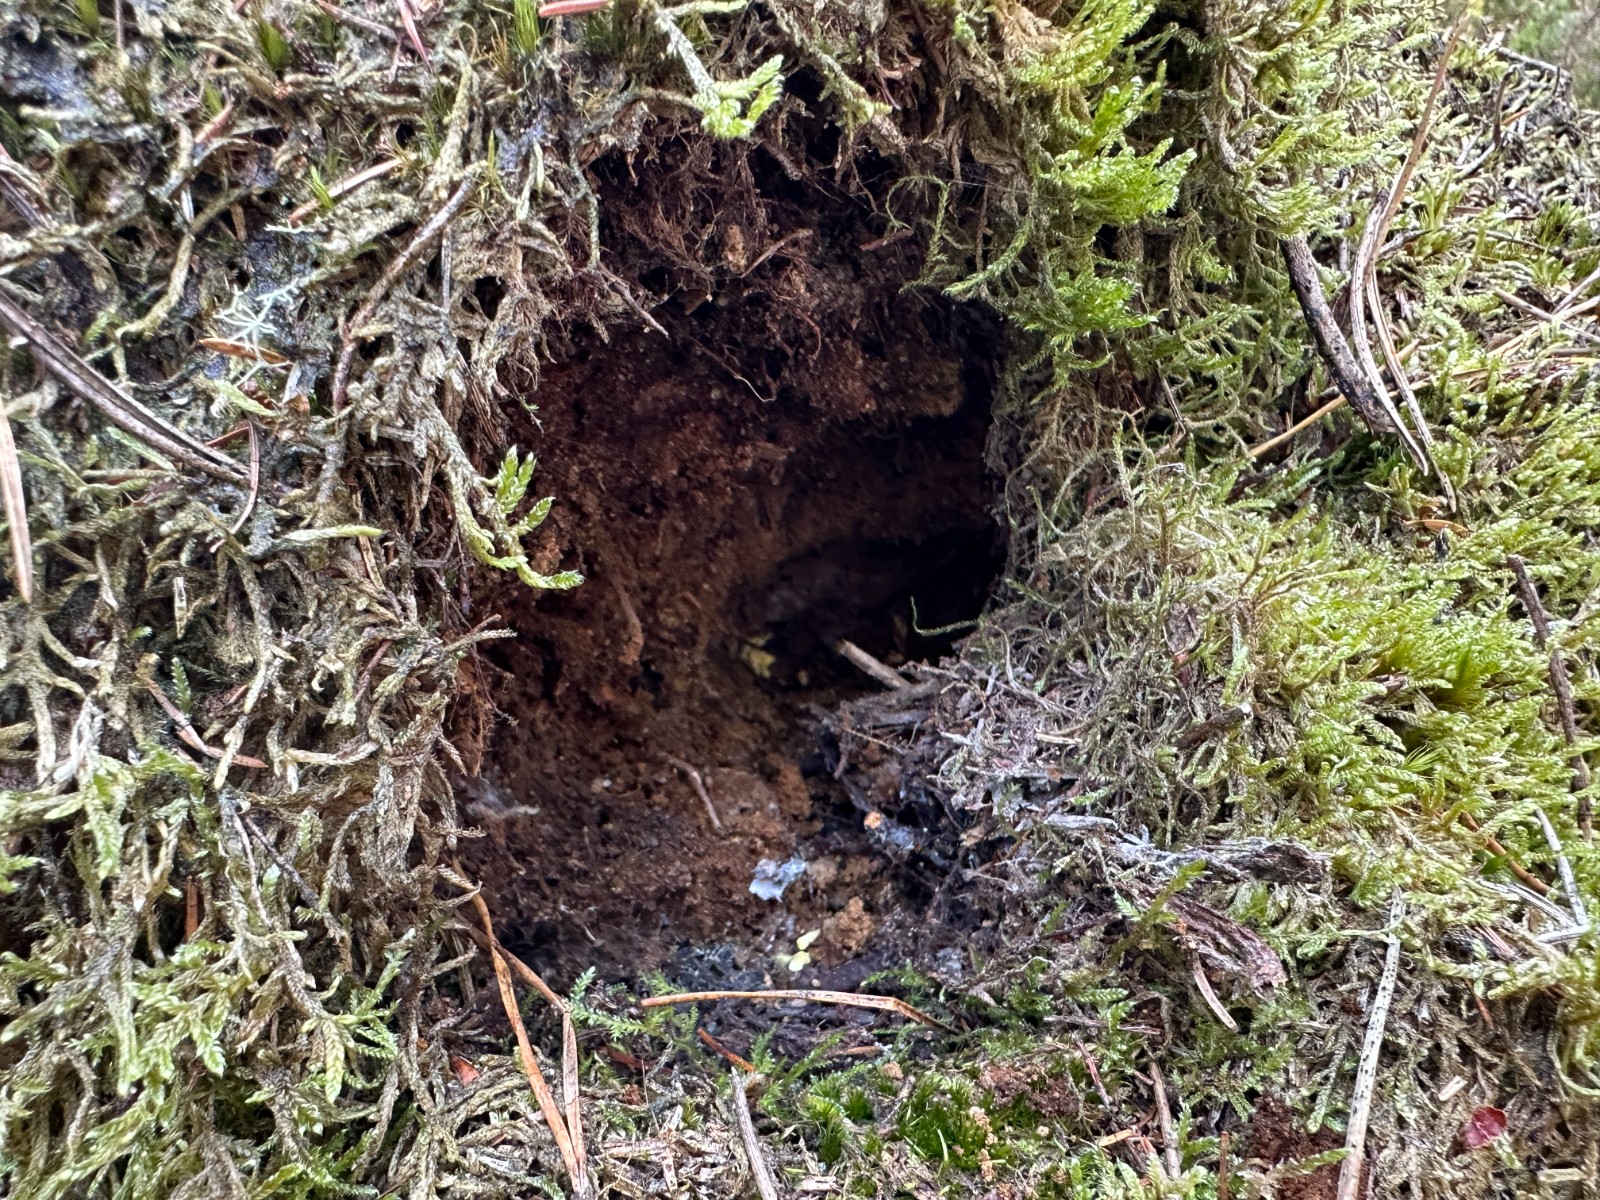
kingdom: Fungi
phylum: Basidiomycota
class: Agaricomycetes
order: Stereopsidales
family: Stereopsidaceae
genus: Stereopsis
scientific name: Stereopsis vitellina
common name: stilklædersvamp
